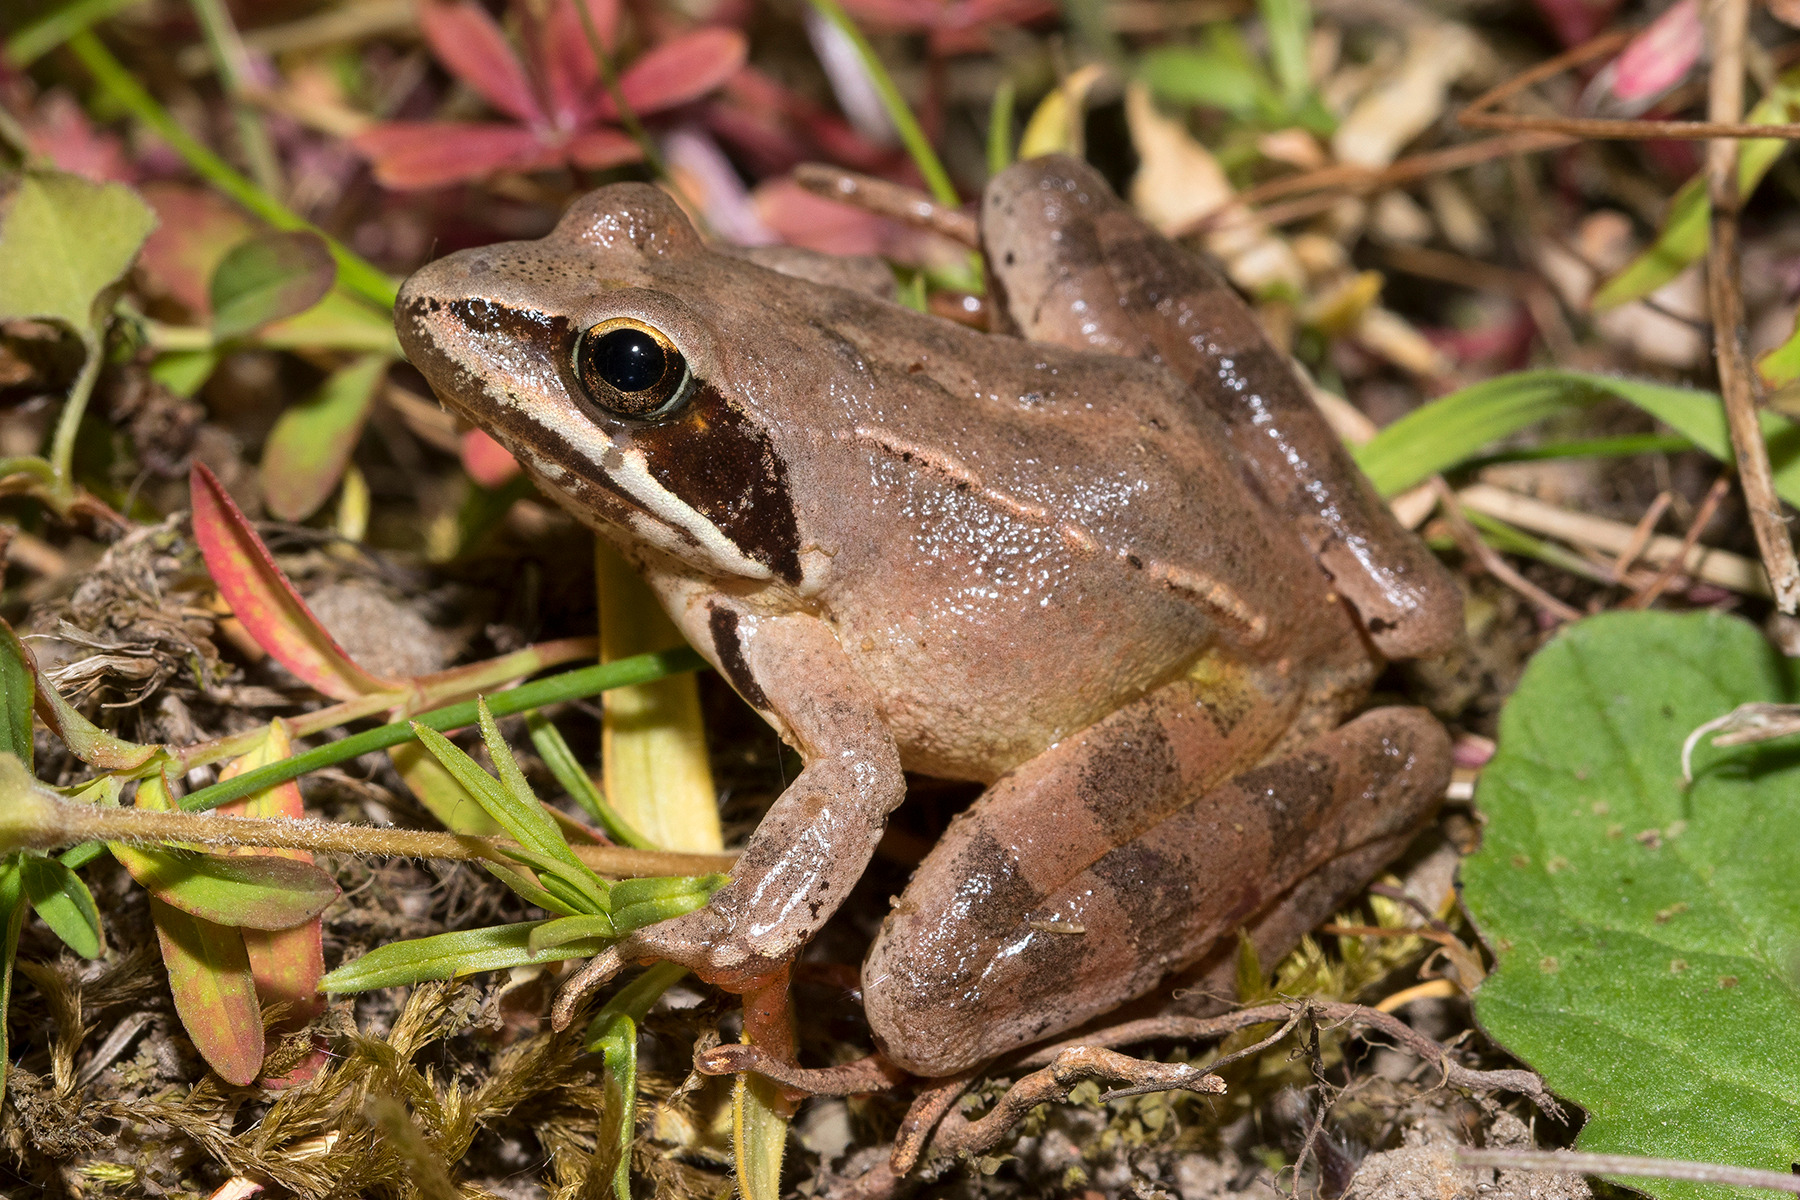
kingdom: Animalia
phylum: Chordata
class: Amphibia
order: Anura
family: Ranidae
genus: Rana
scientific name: Rana dalmatina
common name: Springfrø
